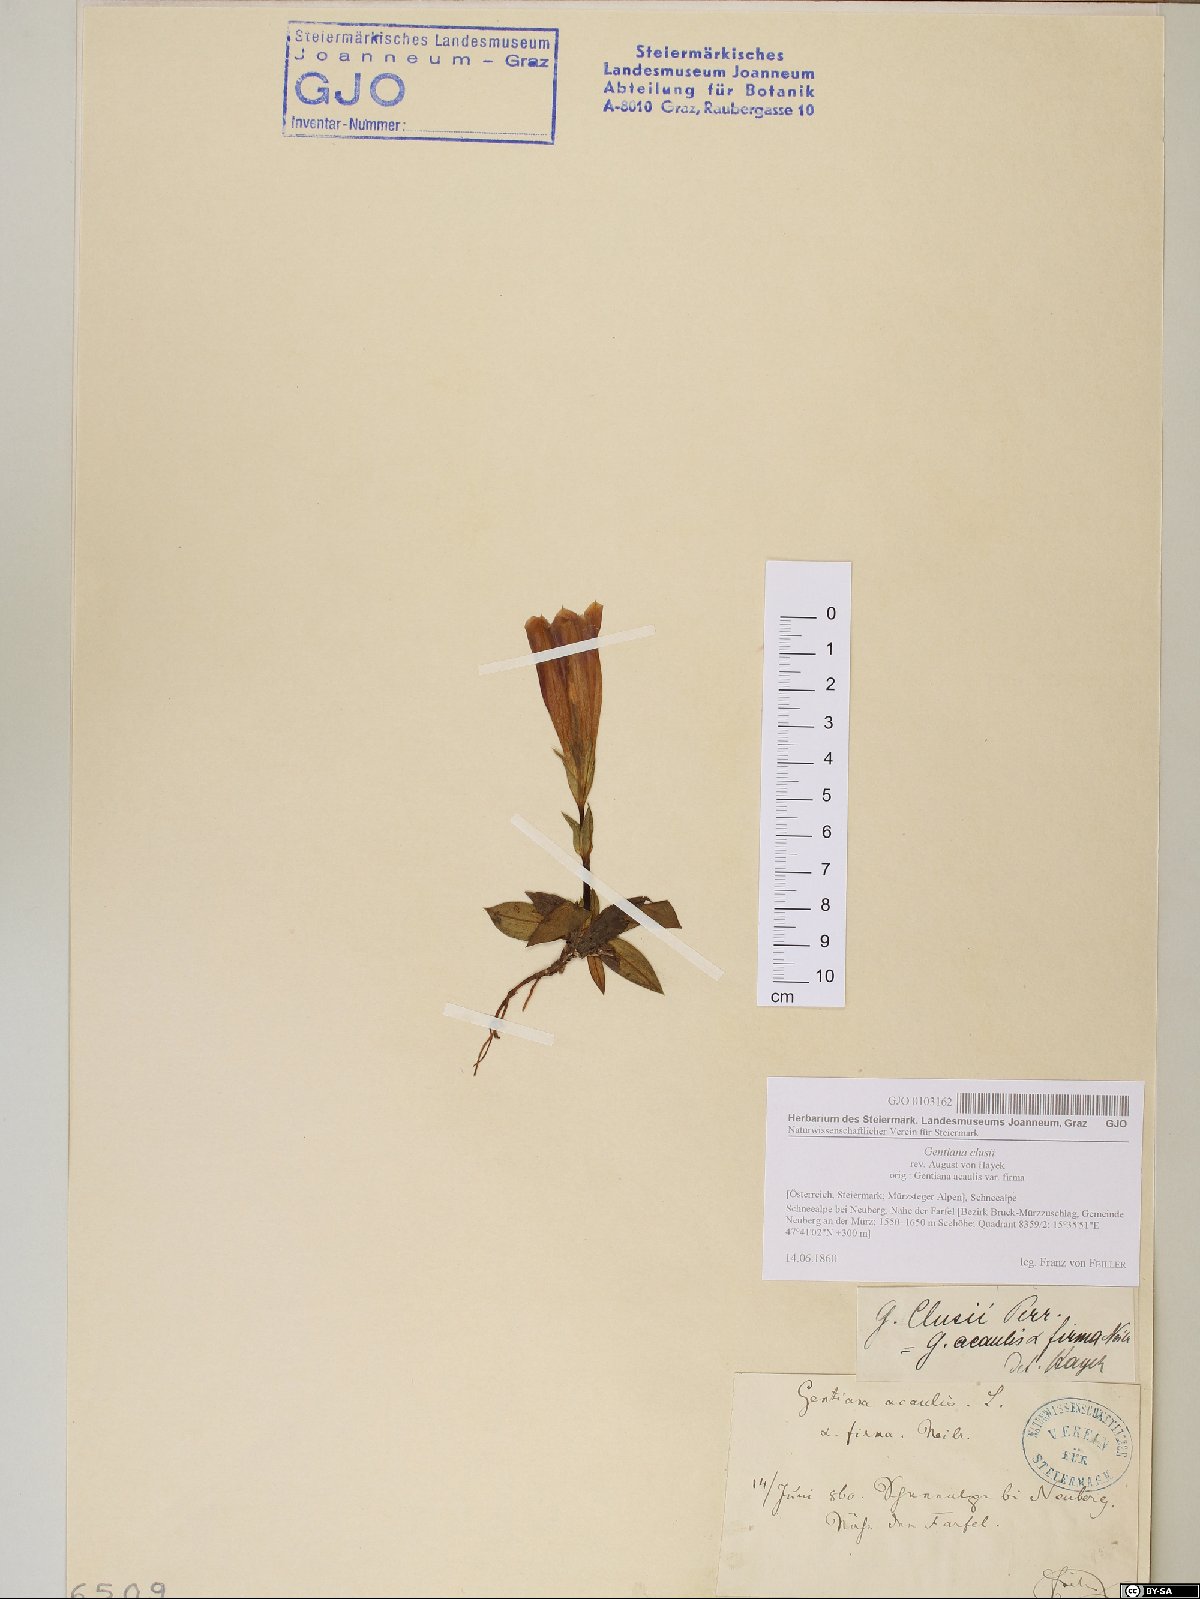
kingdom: Plantae
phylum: Tracheophyta
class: Magnoliopsida
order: Gentianales
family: Gentianaceae
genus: Gentiana
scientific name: Gentiana clusii
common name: Trumpet gentian
